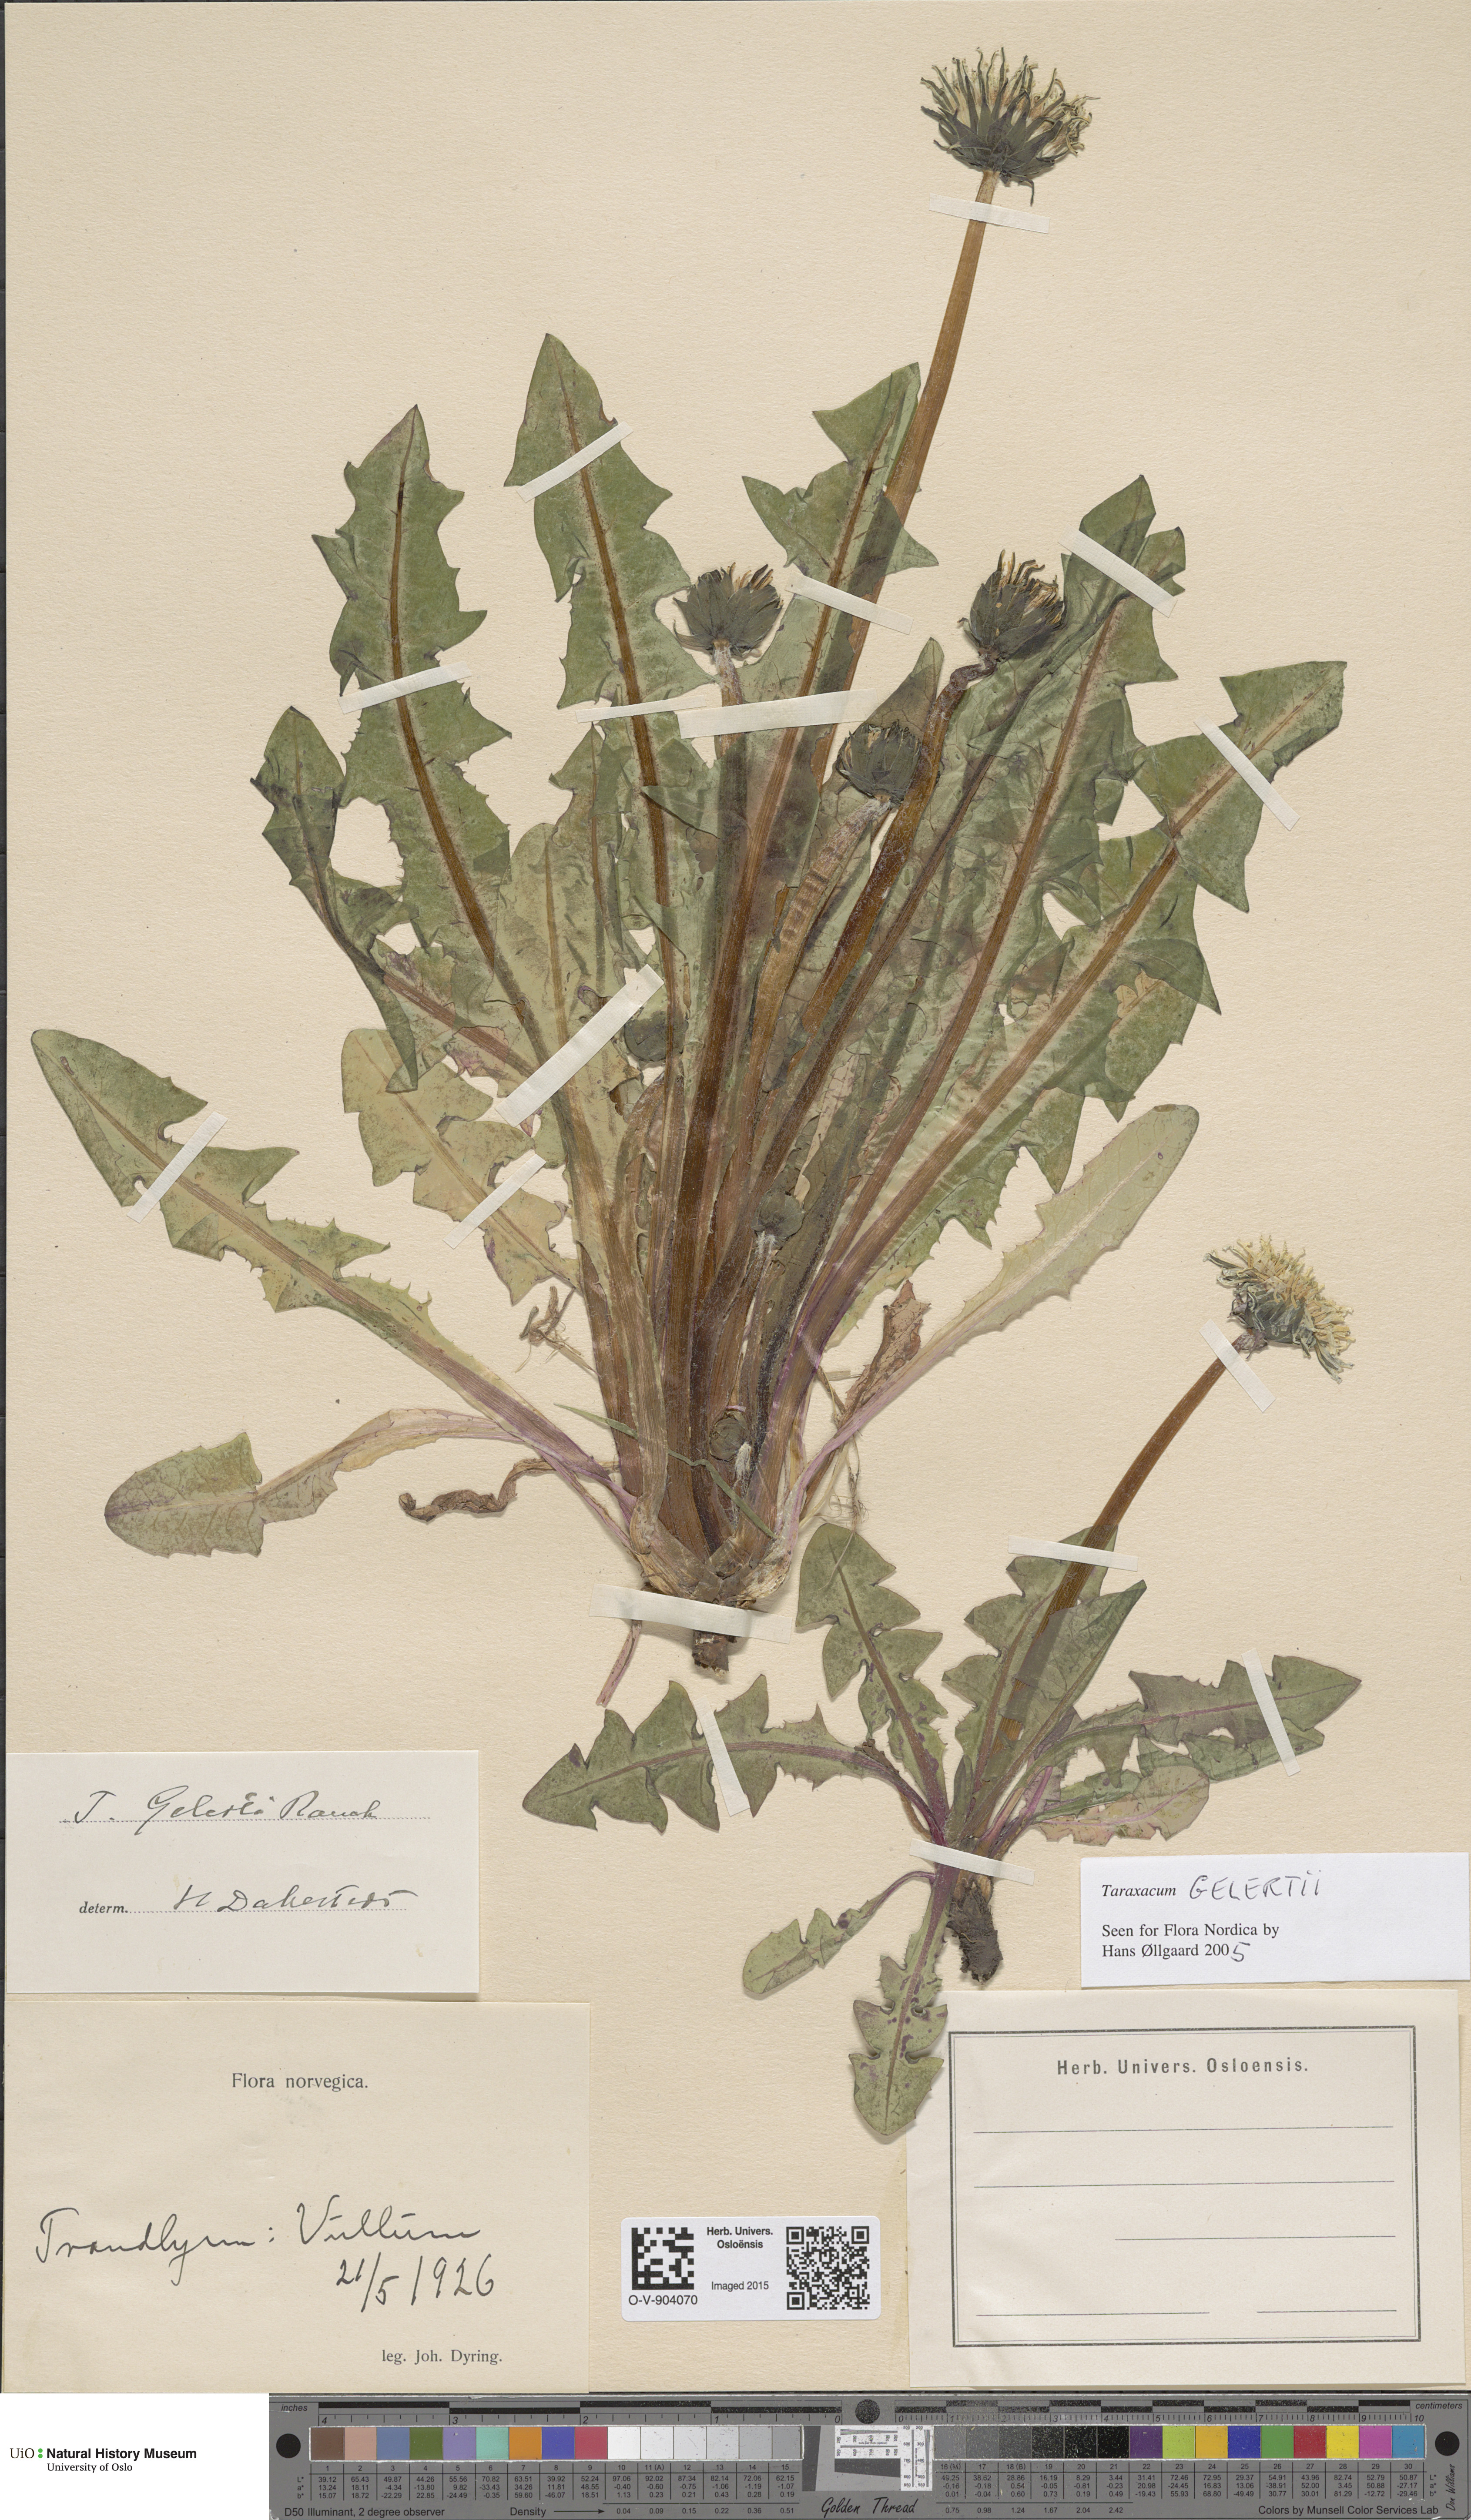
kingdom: Plantae
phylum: Tracheophyta
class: Magnoliopsida
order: Asterales
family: Asteraceae
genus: Taraxacum
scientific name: Taraxacum gelertii
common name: Gelert's dandelion
